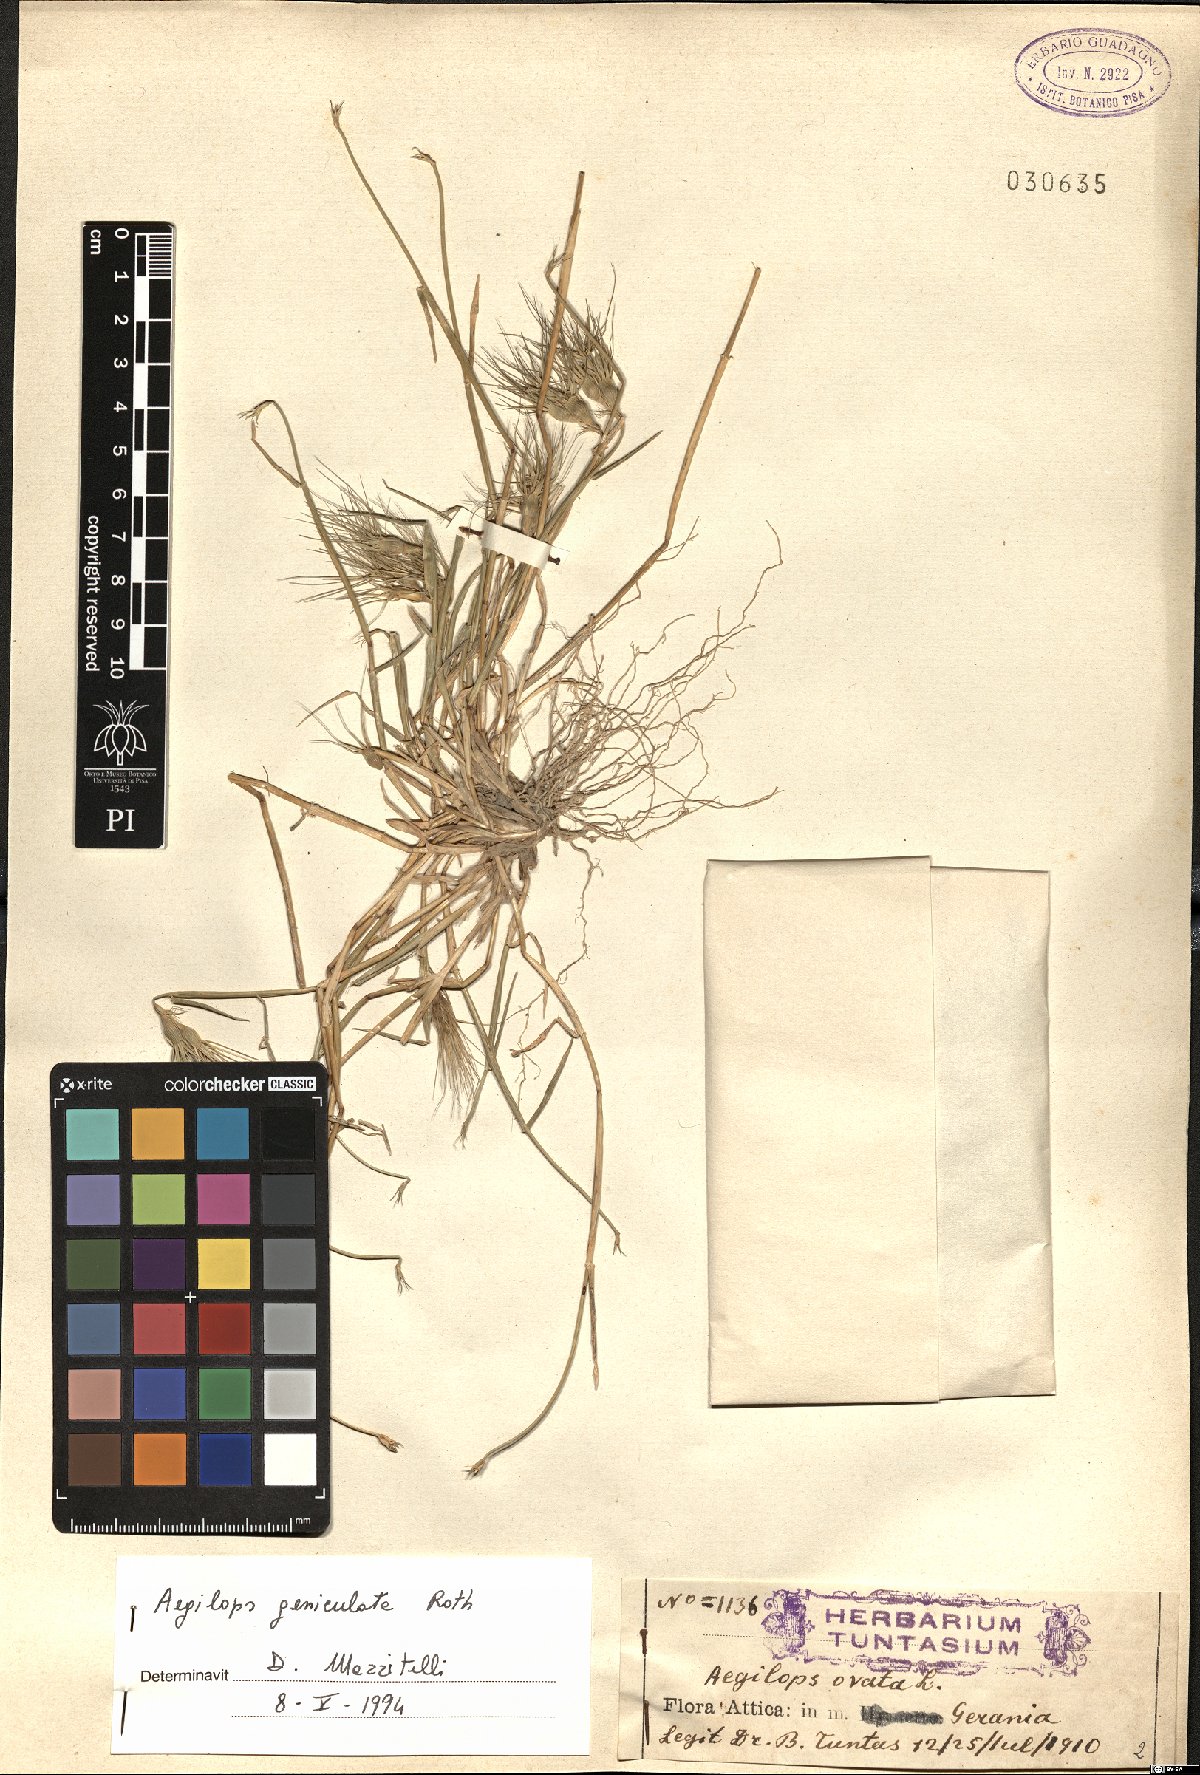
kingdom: Plantae
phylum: Tracheophyta
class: Liliopsida
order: Poales
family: Poaceae
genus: Aegilops
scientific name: Aegilops geniculata
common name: Ovate goat grass
